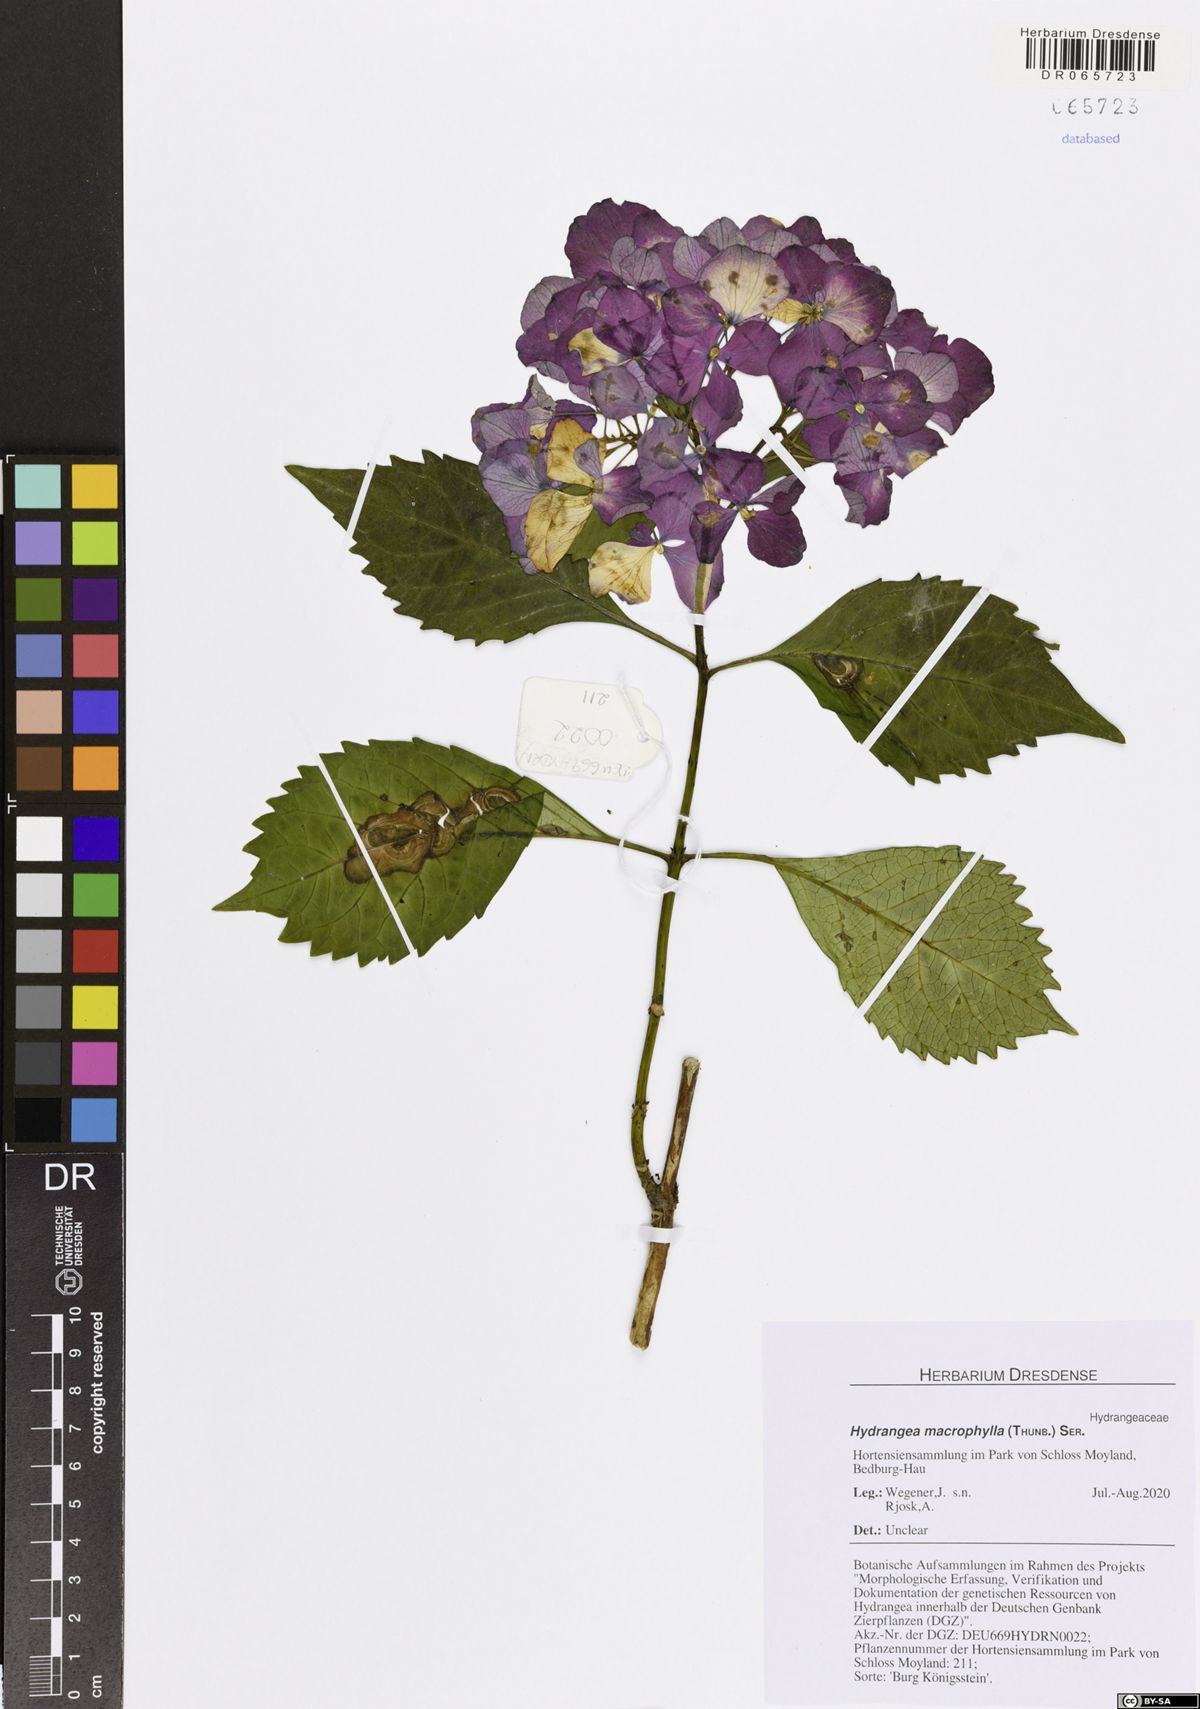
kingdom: Plantae
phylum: Tracheophyta
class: Magnoliopsida
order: Cornales
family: Hydrangeaceae
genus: Hydrangea
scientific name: Hydrangea macrophylla
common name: Hydrangea
